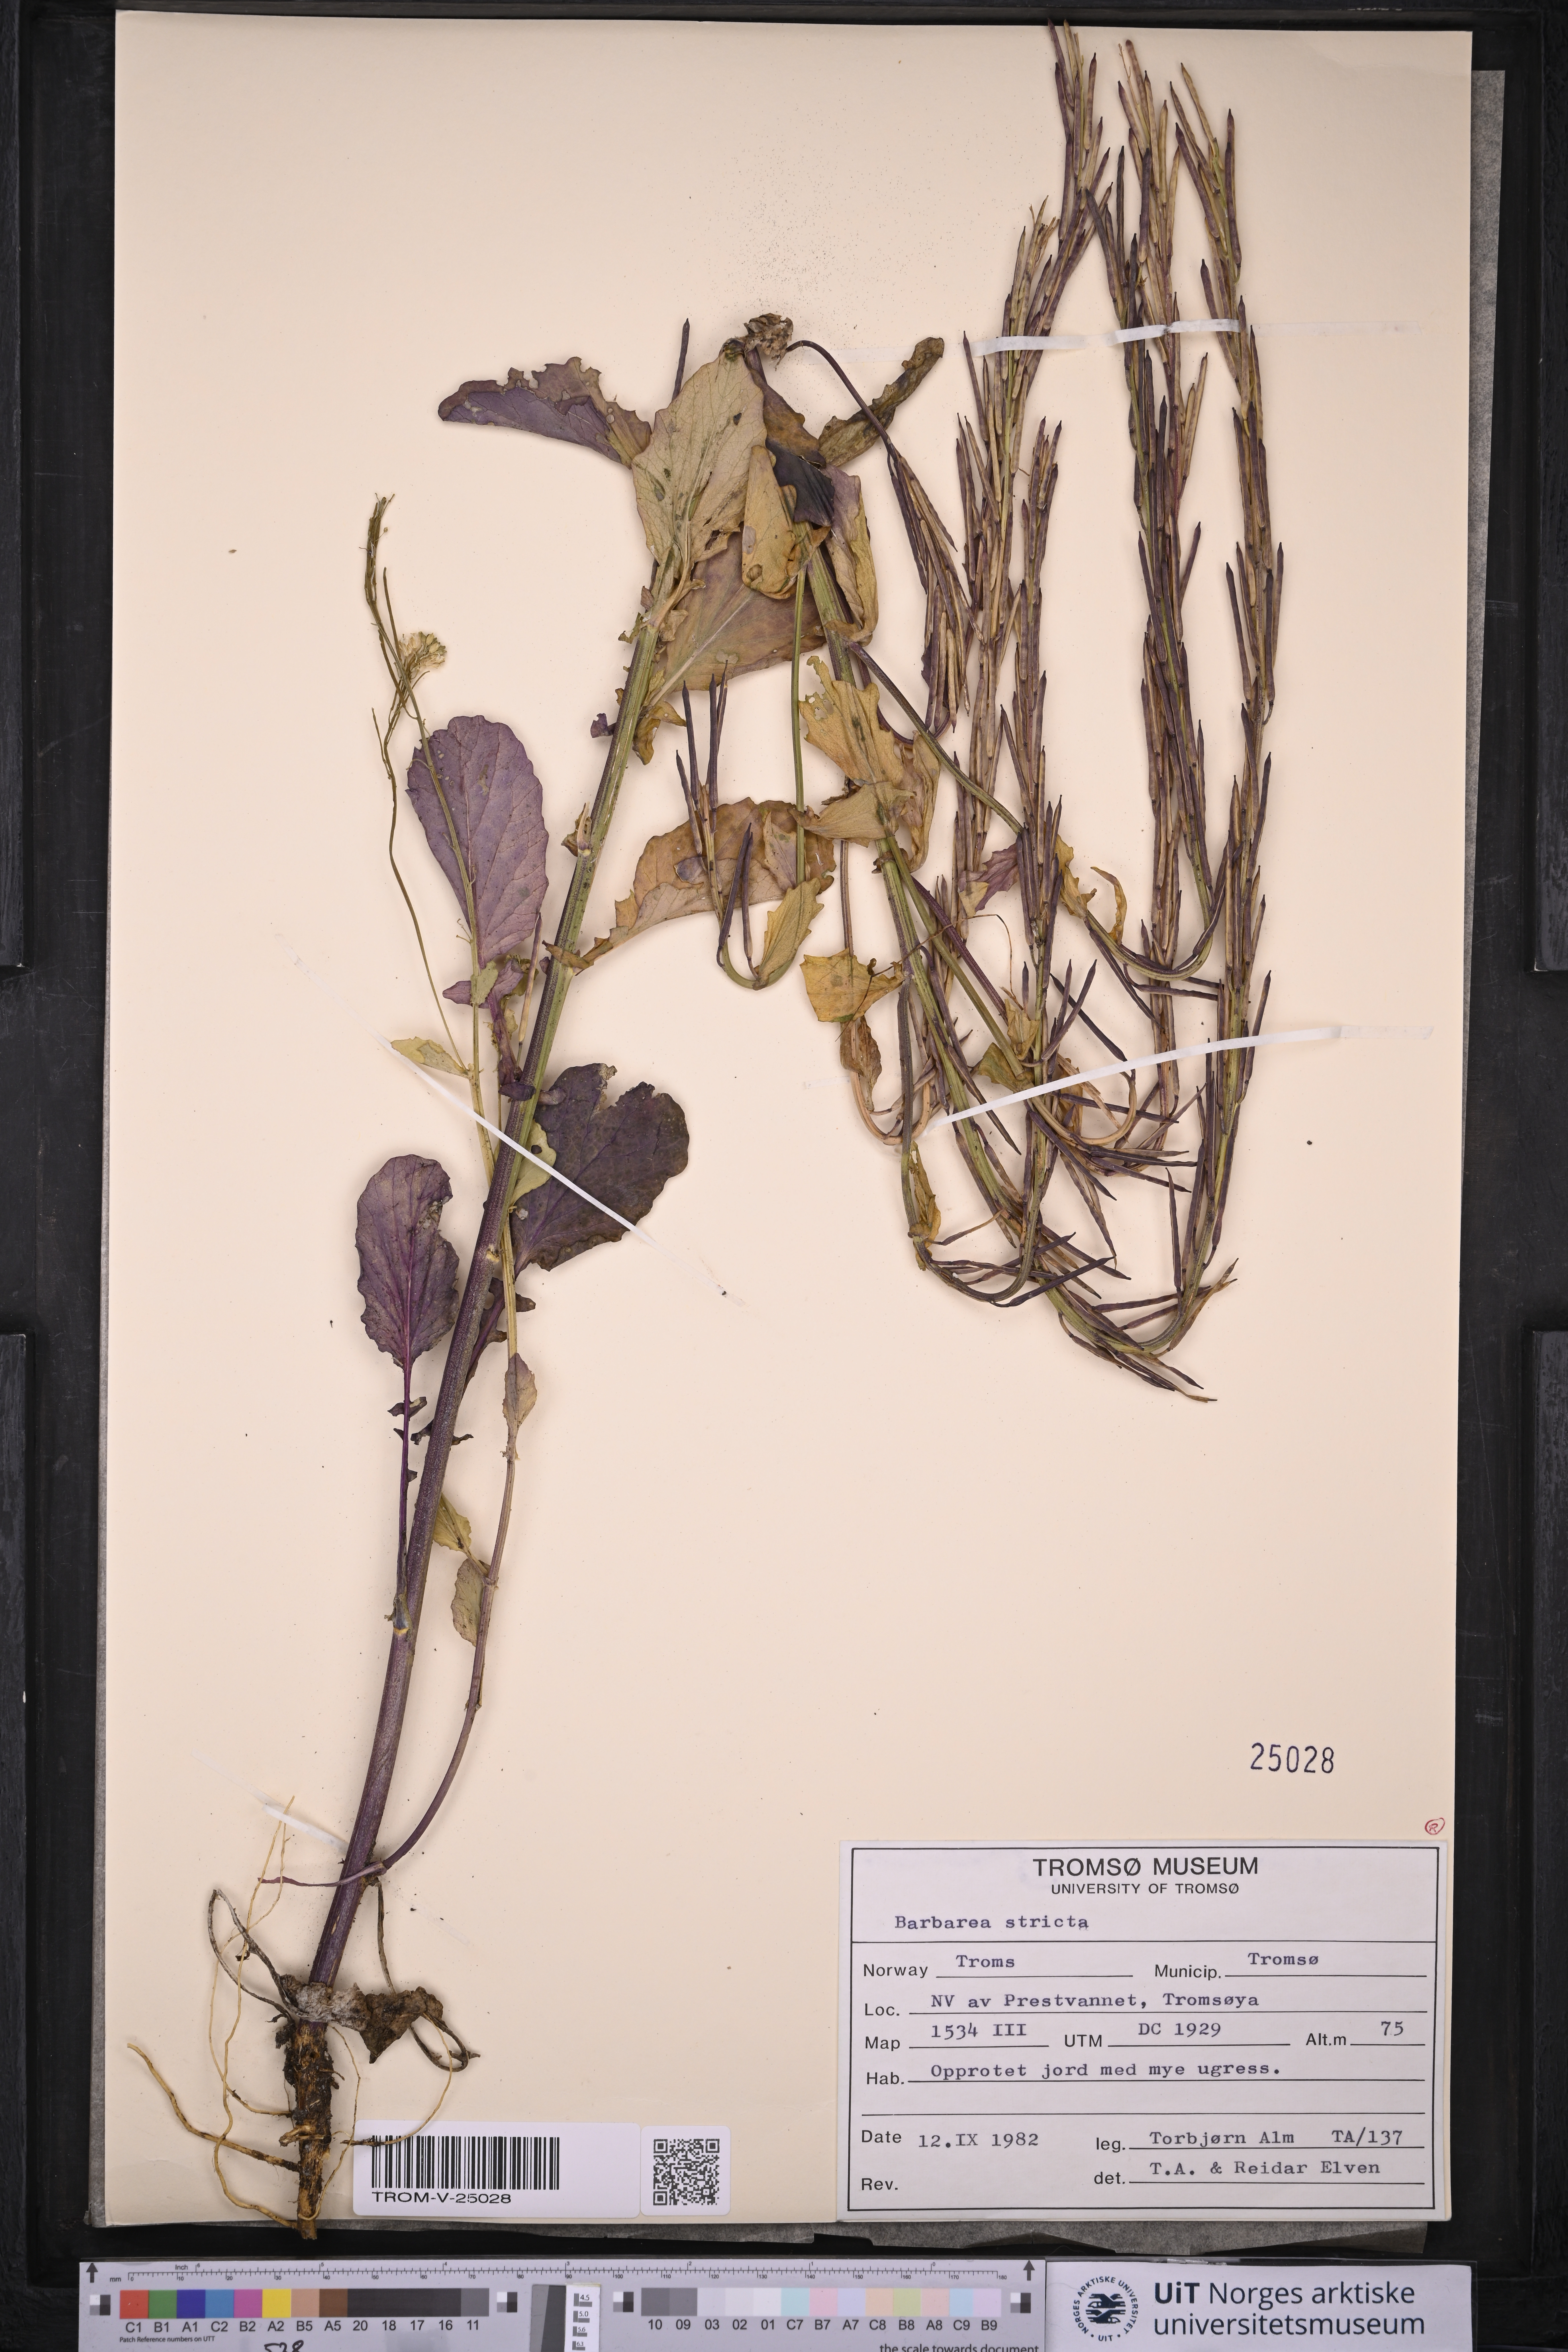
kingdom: Plantae
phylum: Tracheophyta
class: Magnoliopsida
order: Brassicales
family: Brassicaceae
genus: Barbarea
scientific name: Barbarea stricta
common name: Small-flowered winter-cress
